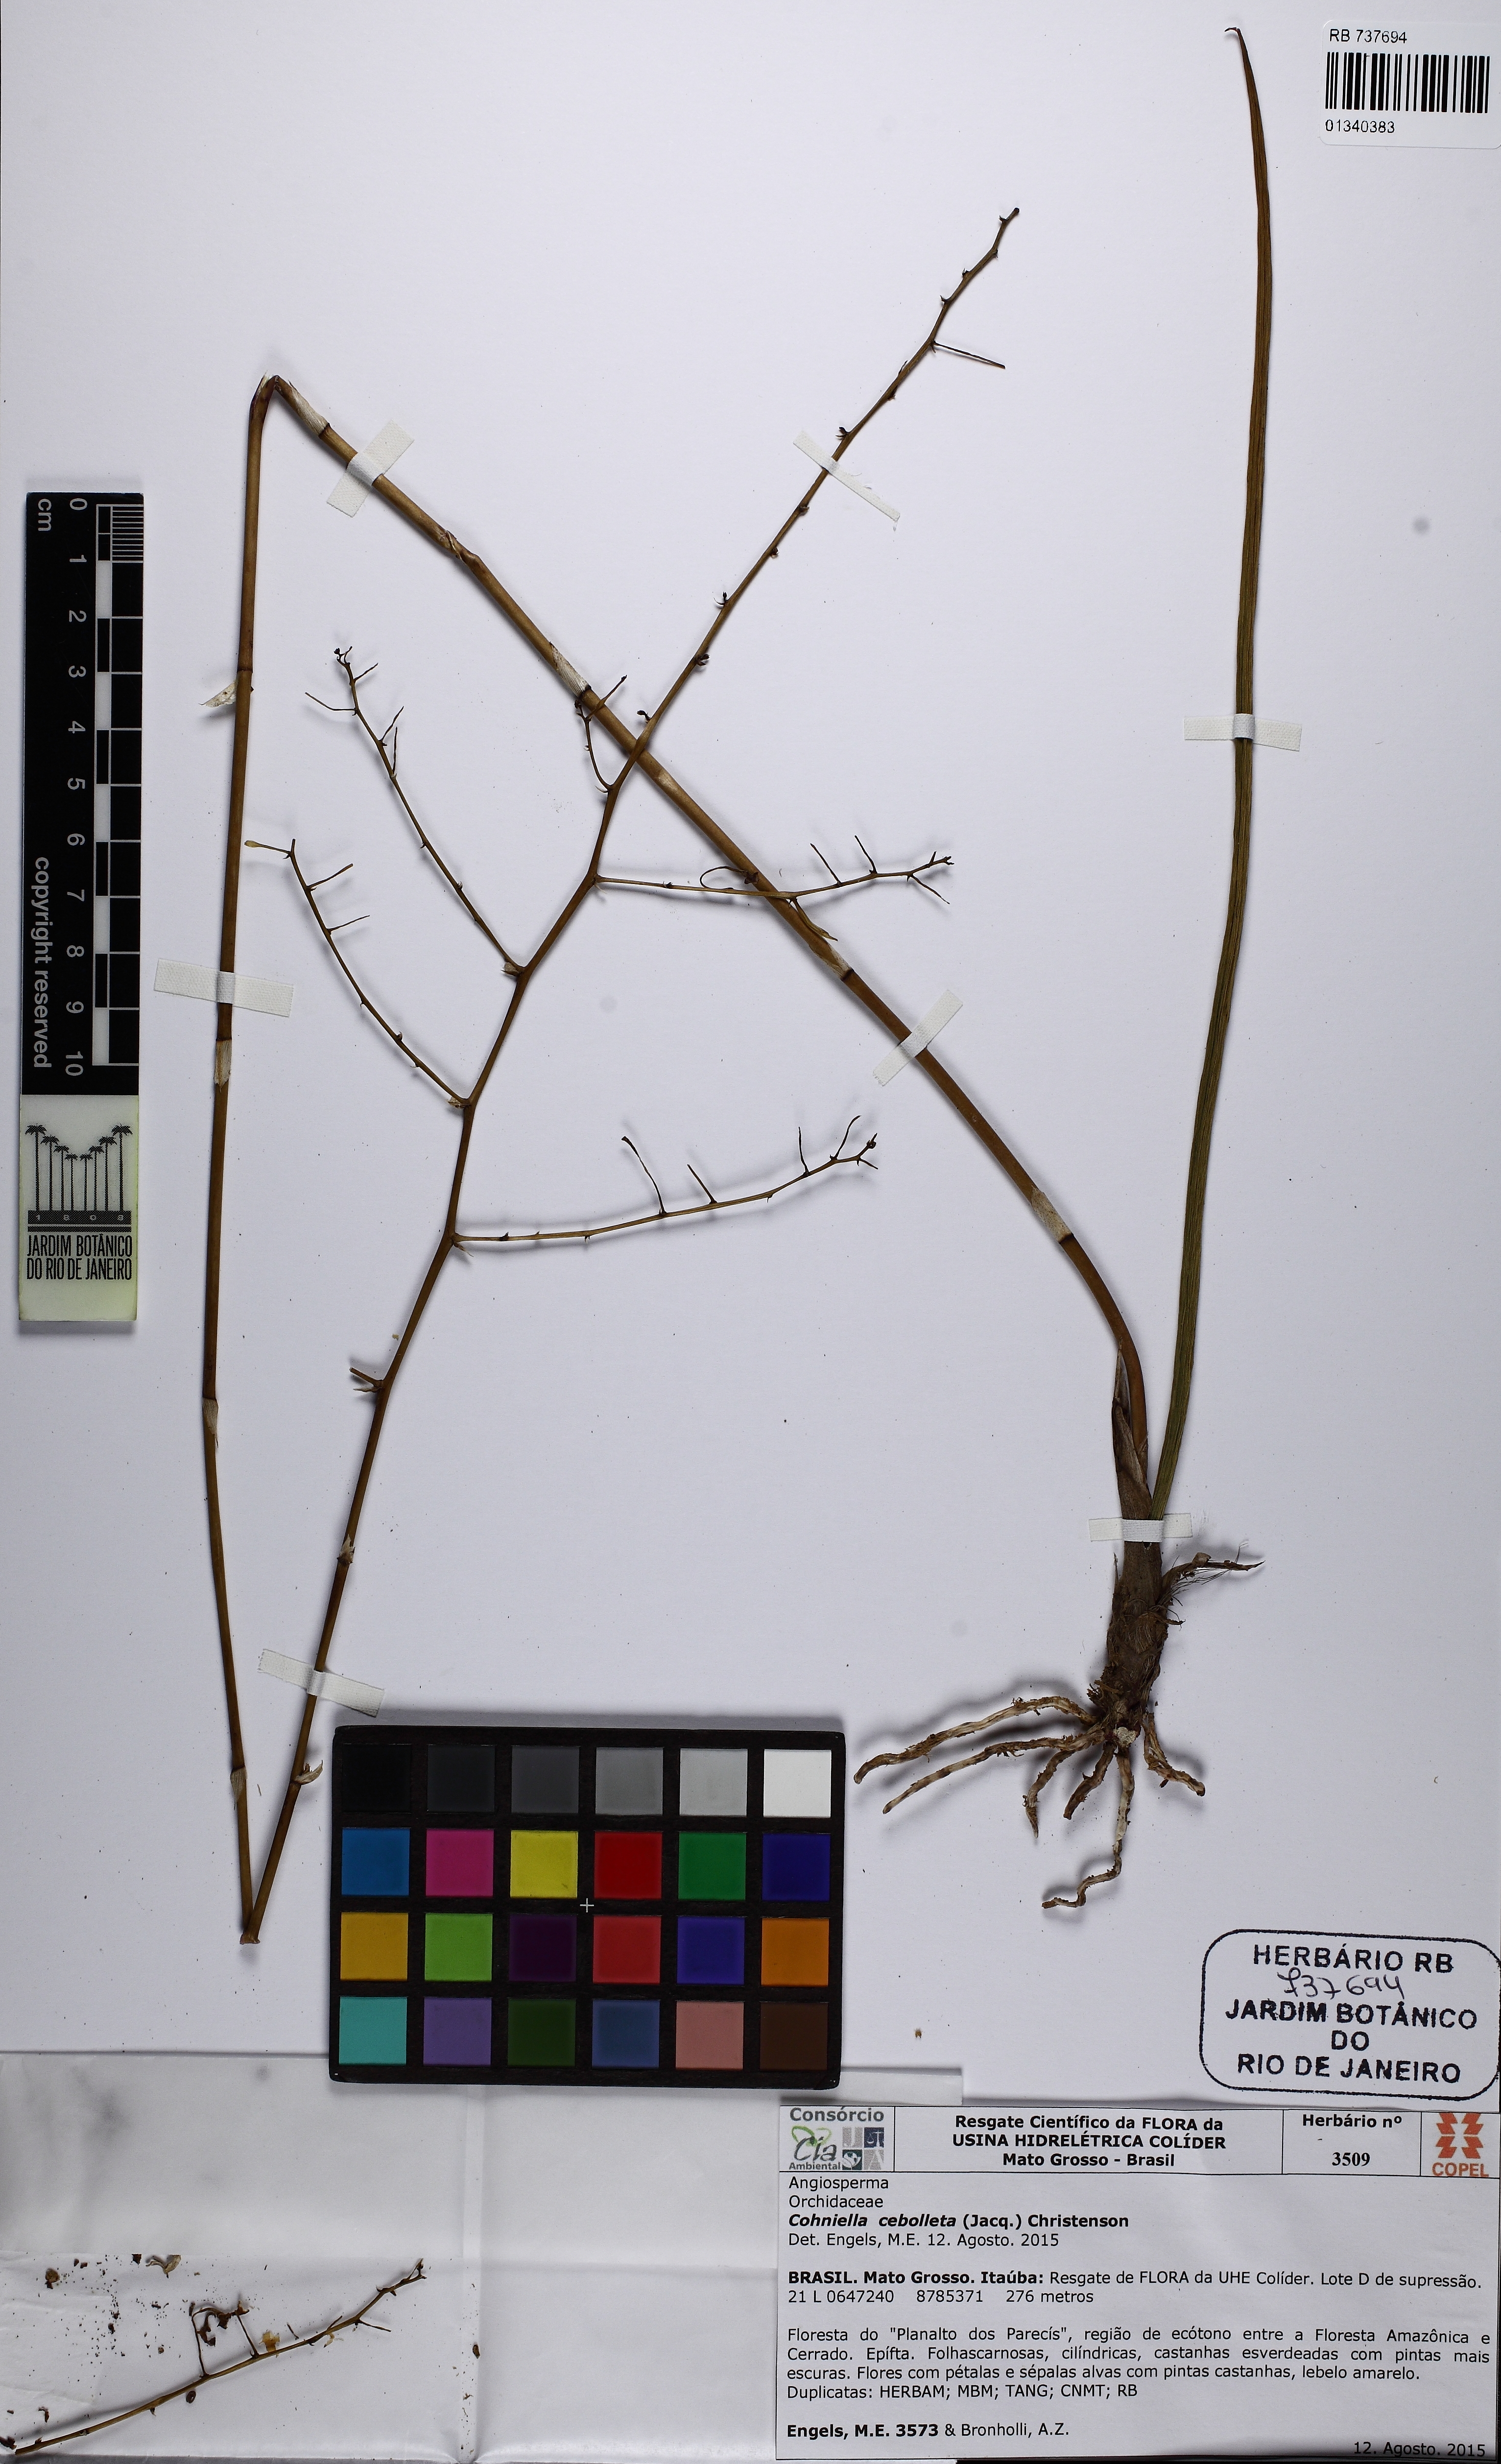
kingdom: Plantae
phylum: Tracheophyta
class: Liliopsida
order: Asparagales
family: Orchidaceae
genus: Trichocentrum
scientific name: Trichocentrum cepula
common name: Rat-tail orchid
